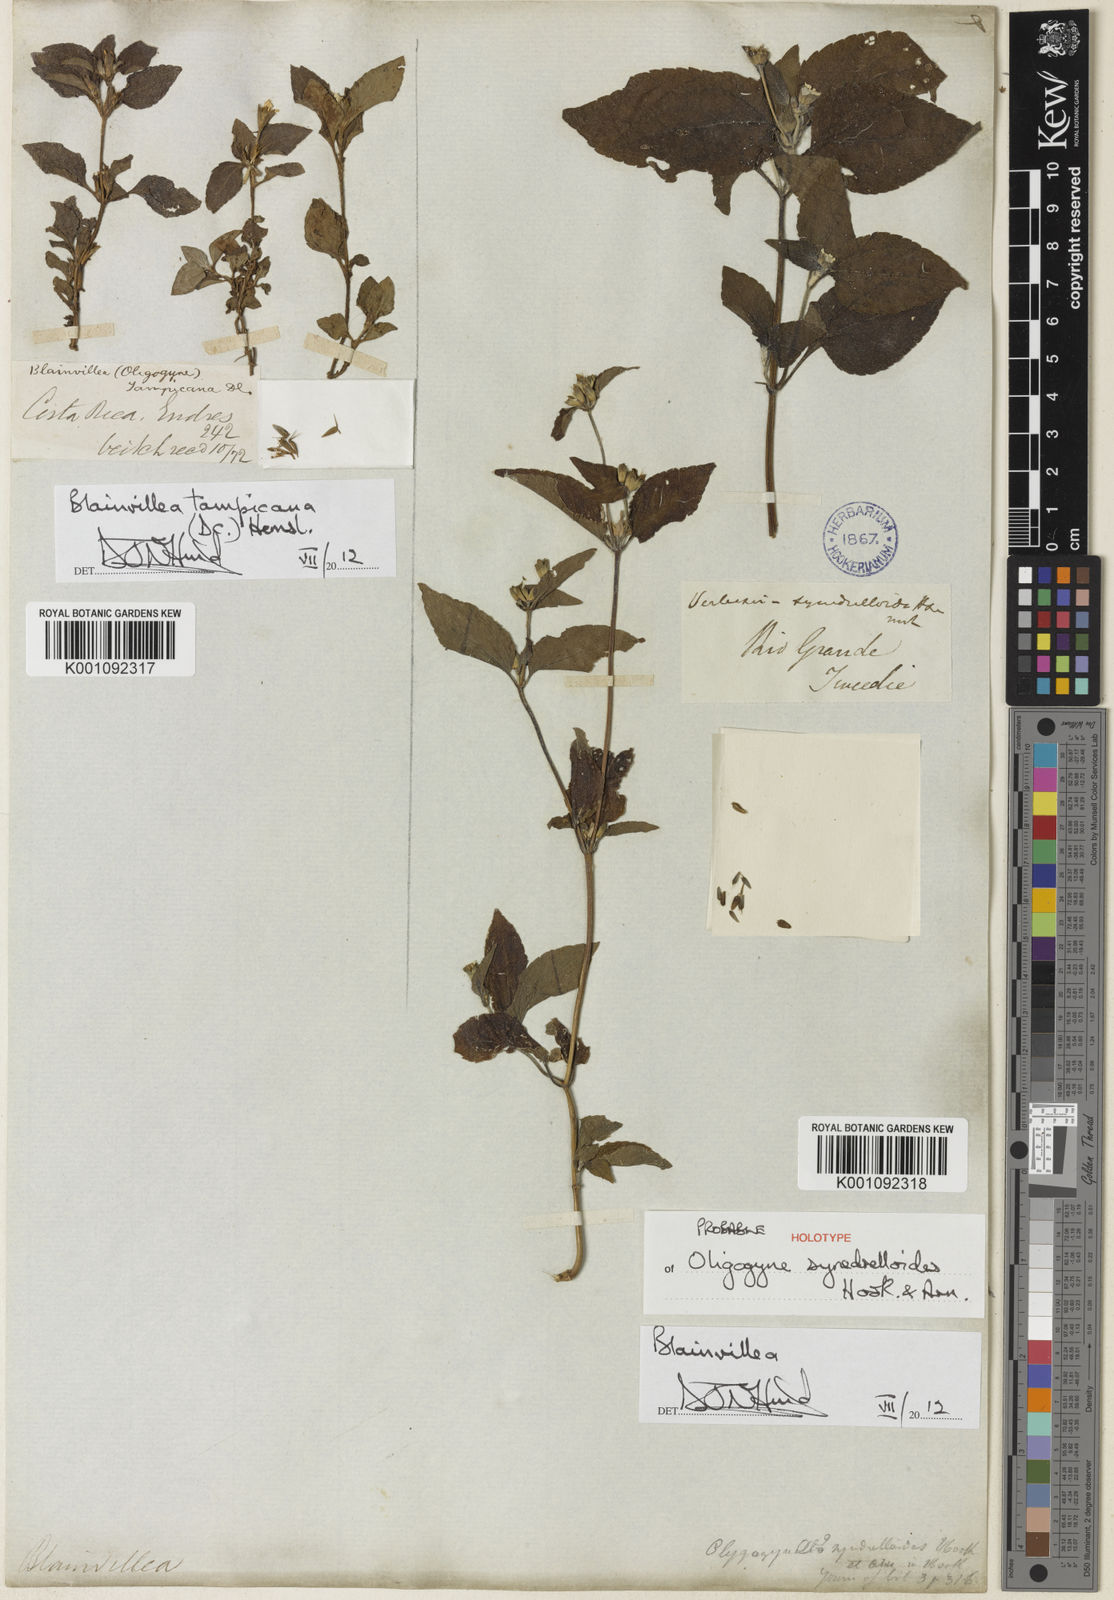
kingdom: Plantae
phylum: Tracheophyta
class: Magnoliopsida
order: Asterales
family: Asteraceae
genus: Calyptocarpus
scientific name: Calyptocarpus brasiliensis
